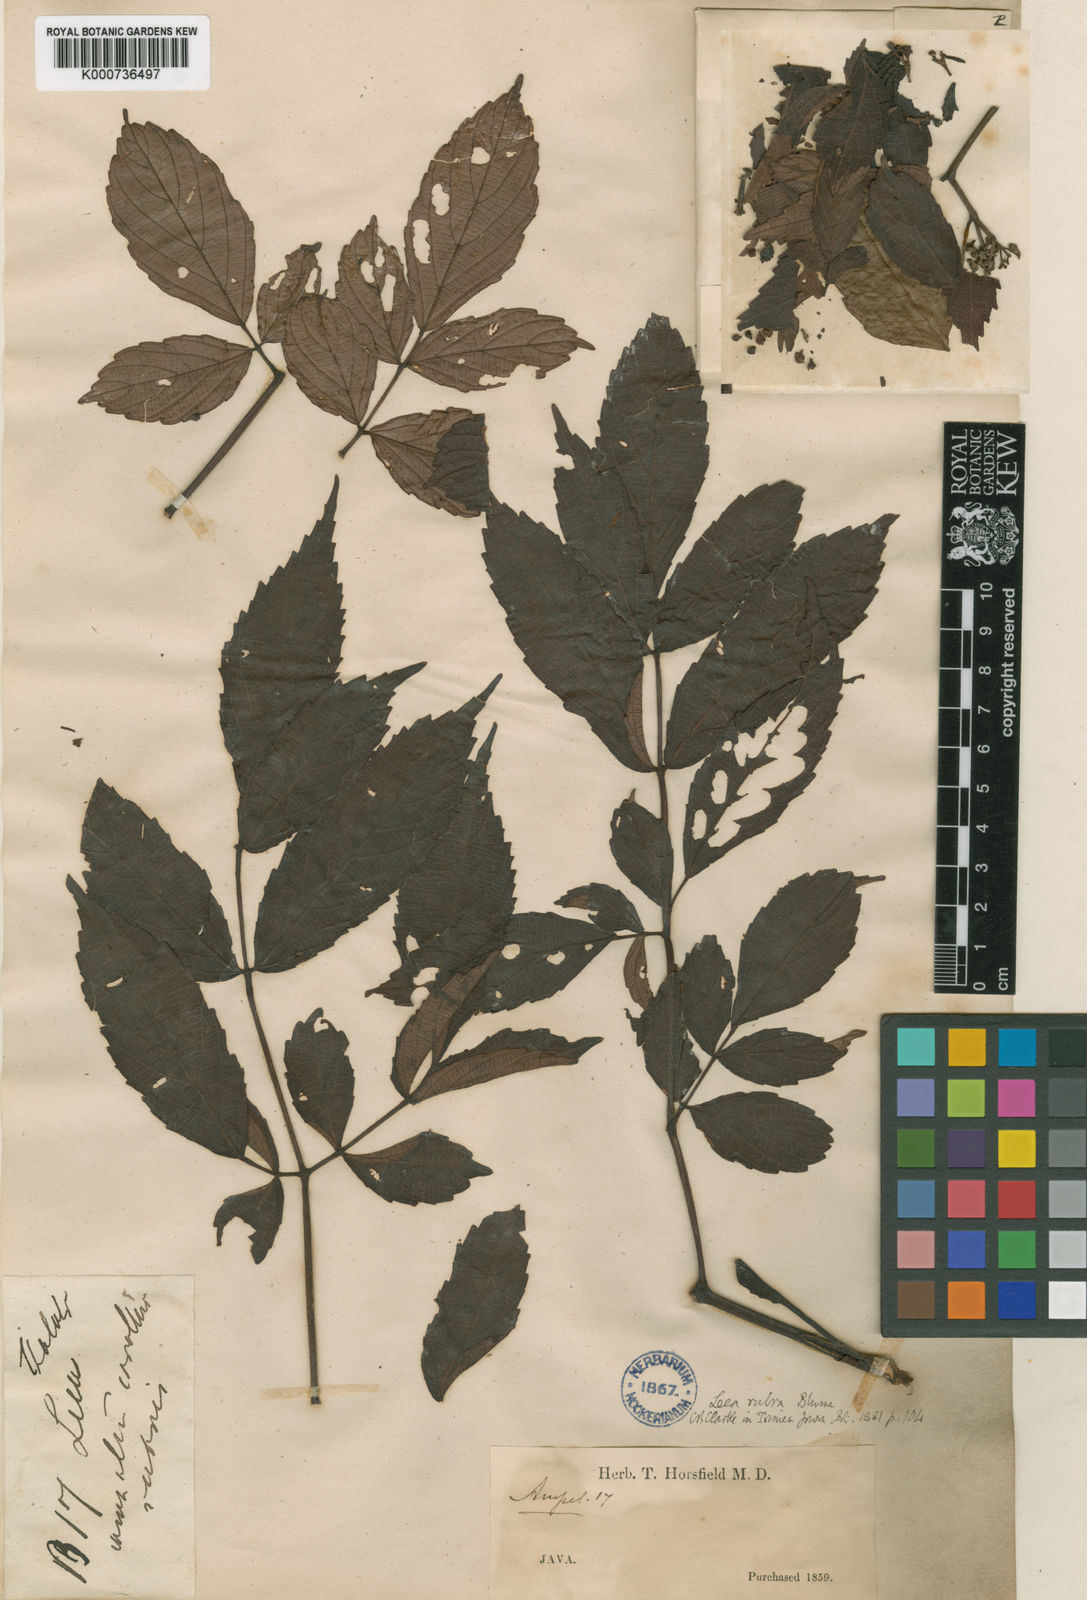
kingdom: Plantae
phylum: Tracheophyta
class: Magnoliopsida
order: Vitales
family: Vitaceae
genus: Leea
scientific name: Leea rubra
